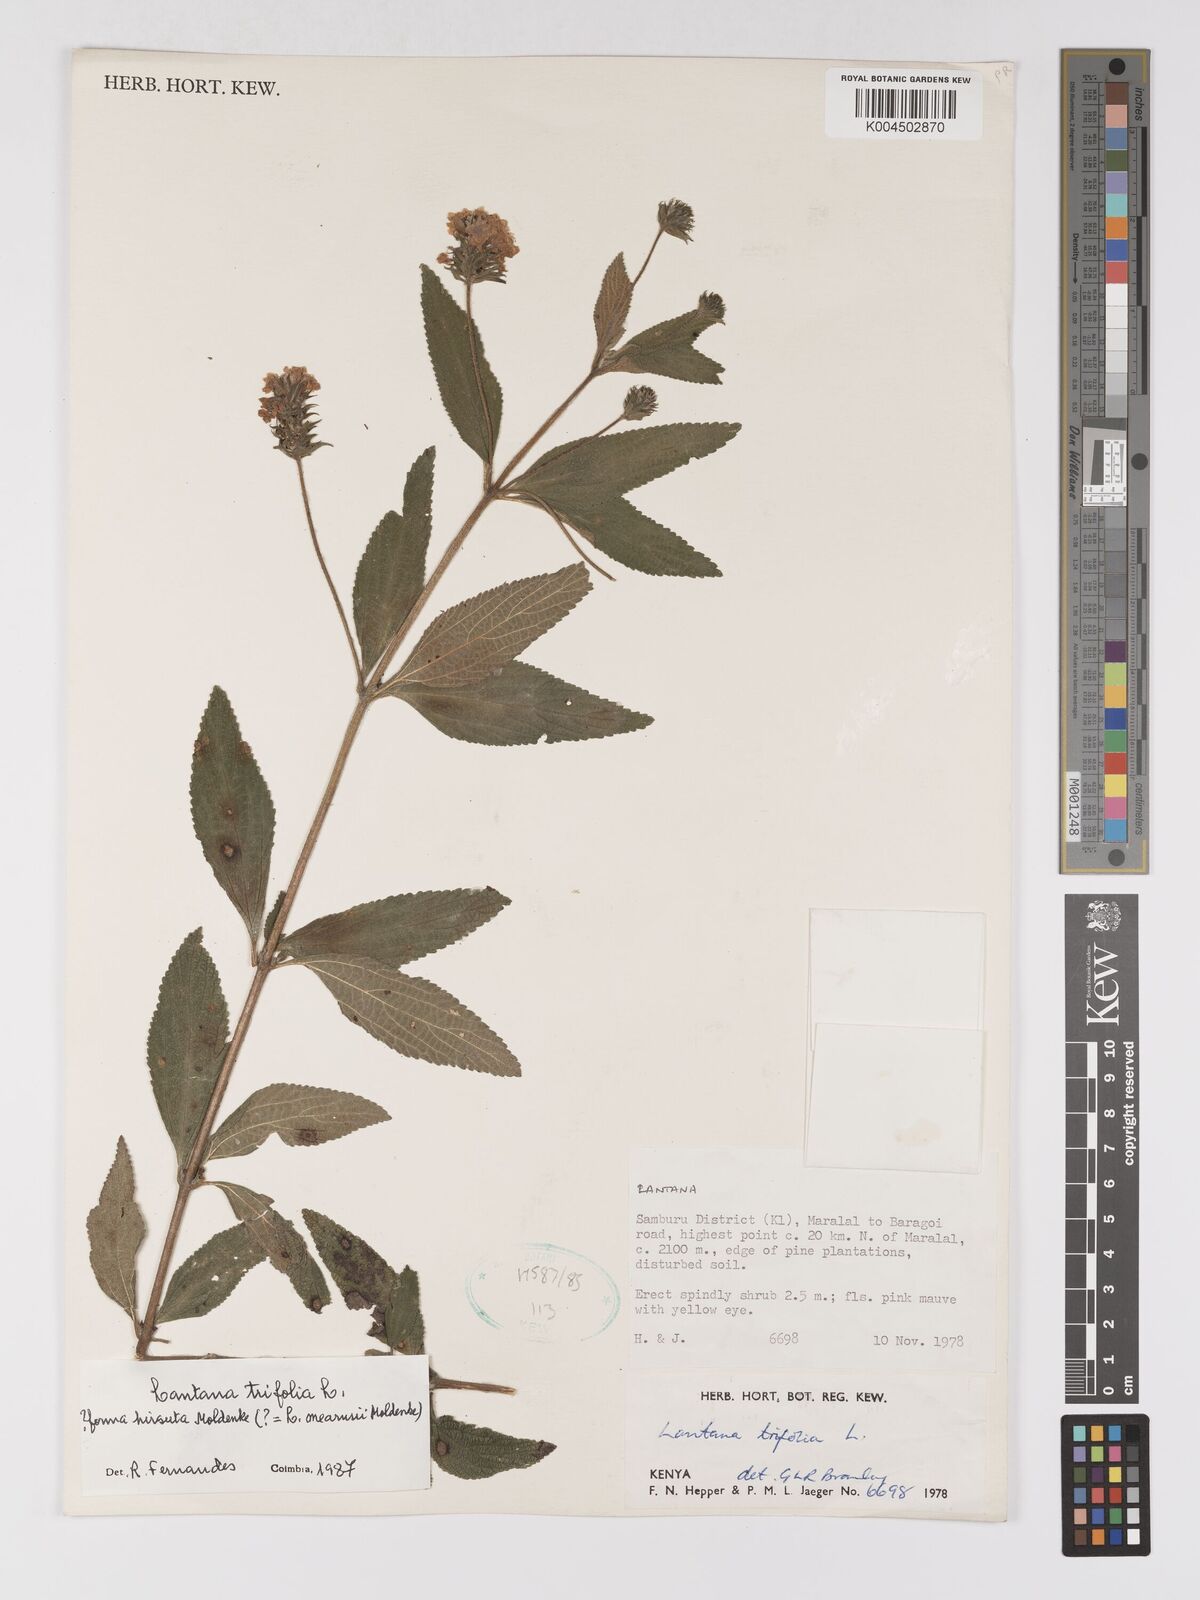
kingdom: Plantae
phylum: Tracheophyta
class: Magnoliopsida
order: Lamiales
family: Verbenaceae
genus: Lantana
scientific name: Lantana trifolia
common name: Sweet-sage
